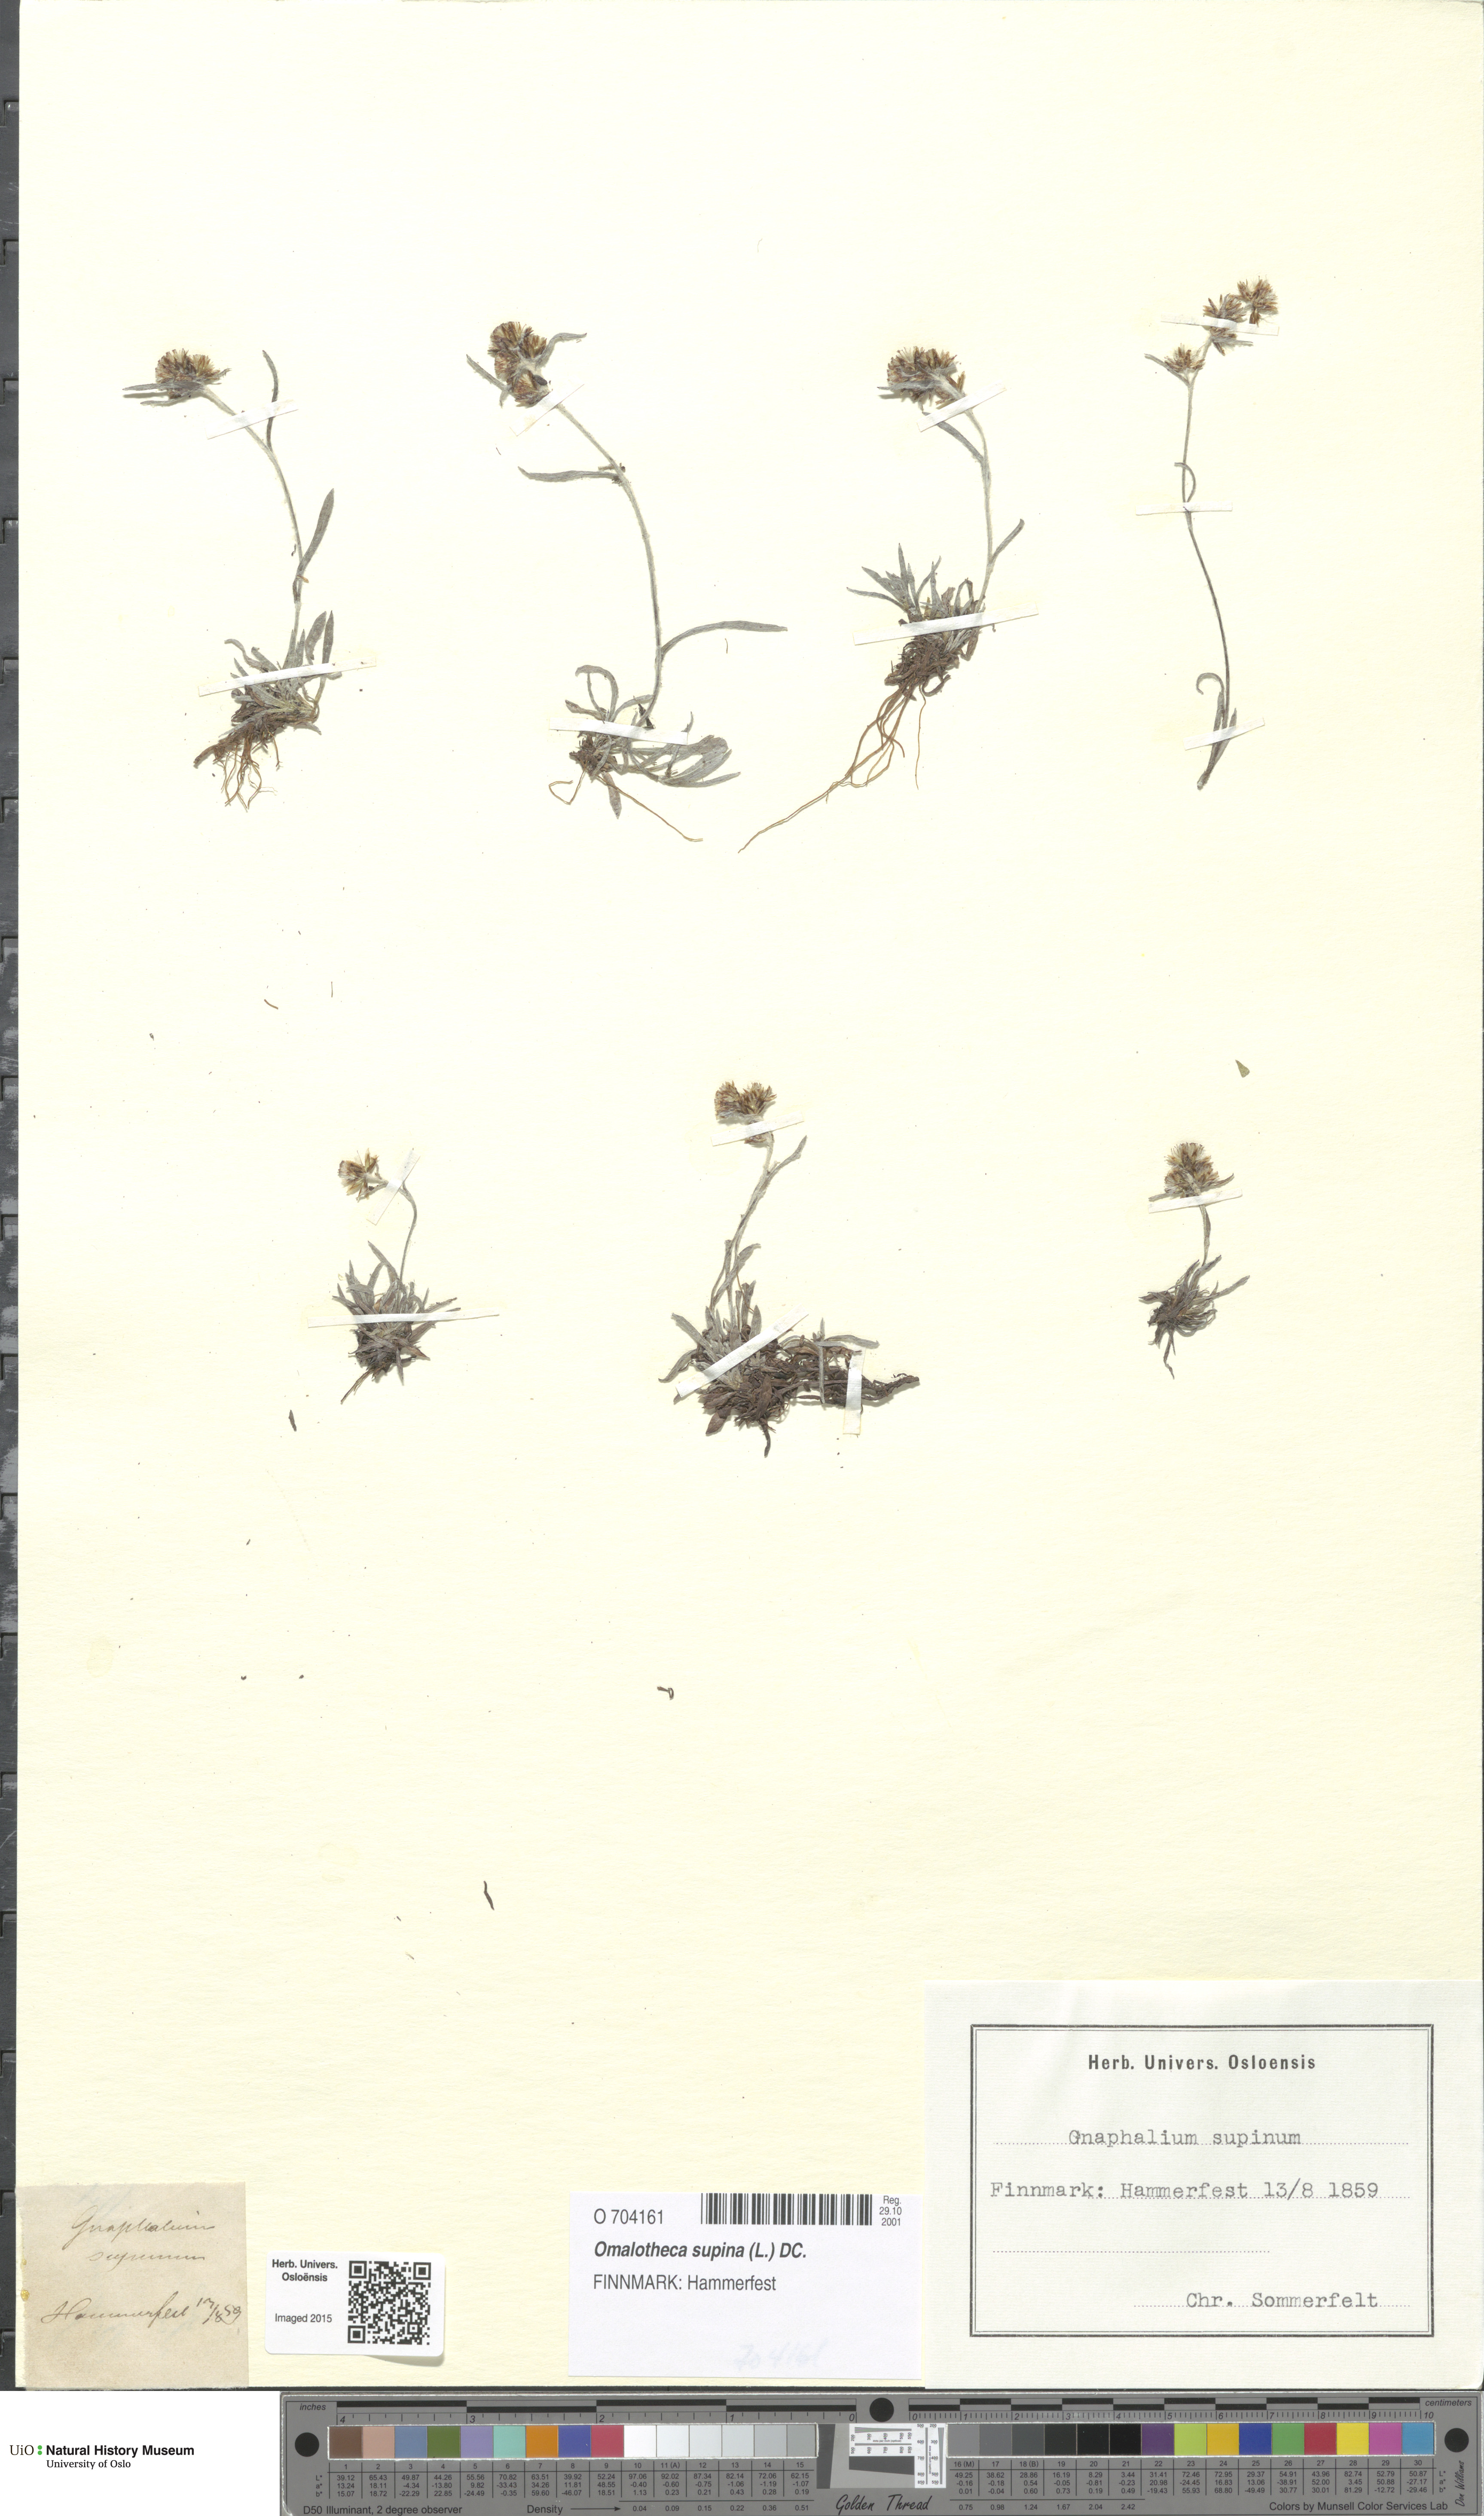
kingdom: Plantae
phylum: Tracheophyta
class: Magnoliopsida
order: Asterales
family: Asteraceae
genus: Omalotheca
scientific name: Omalotheca supina
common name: Alpine arctic-cudweed
